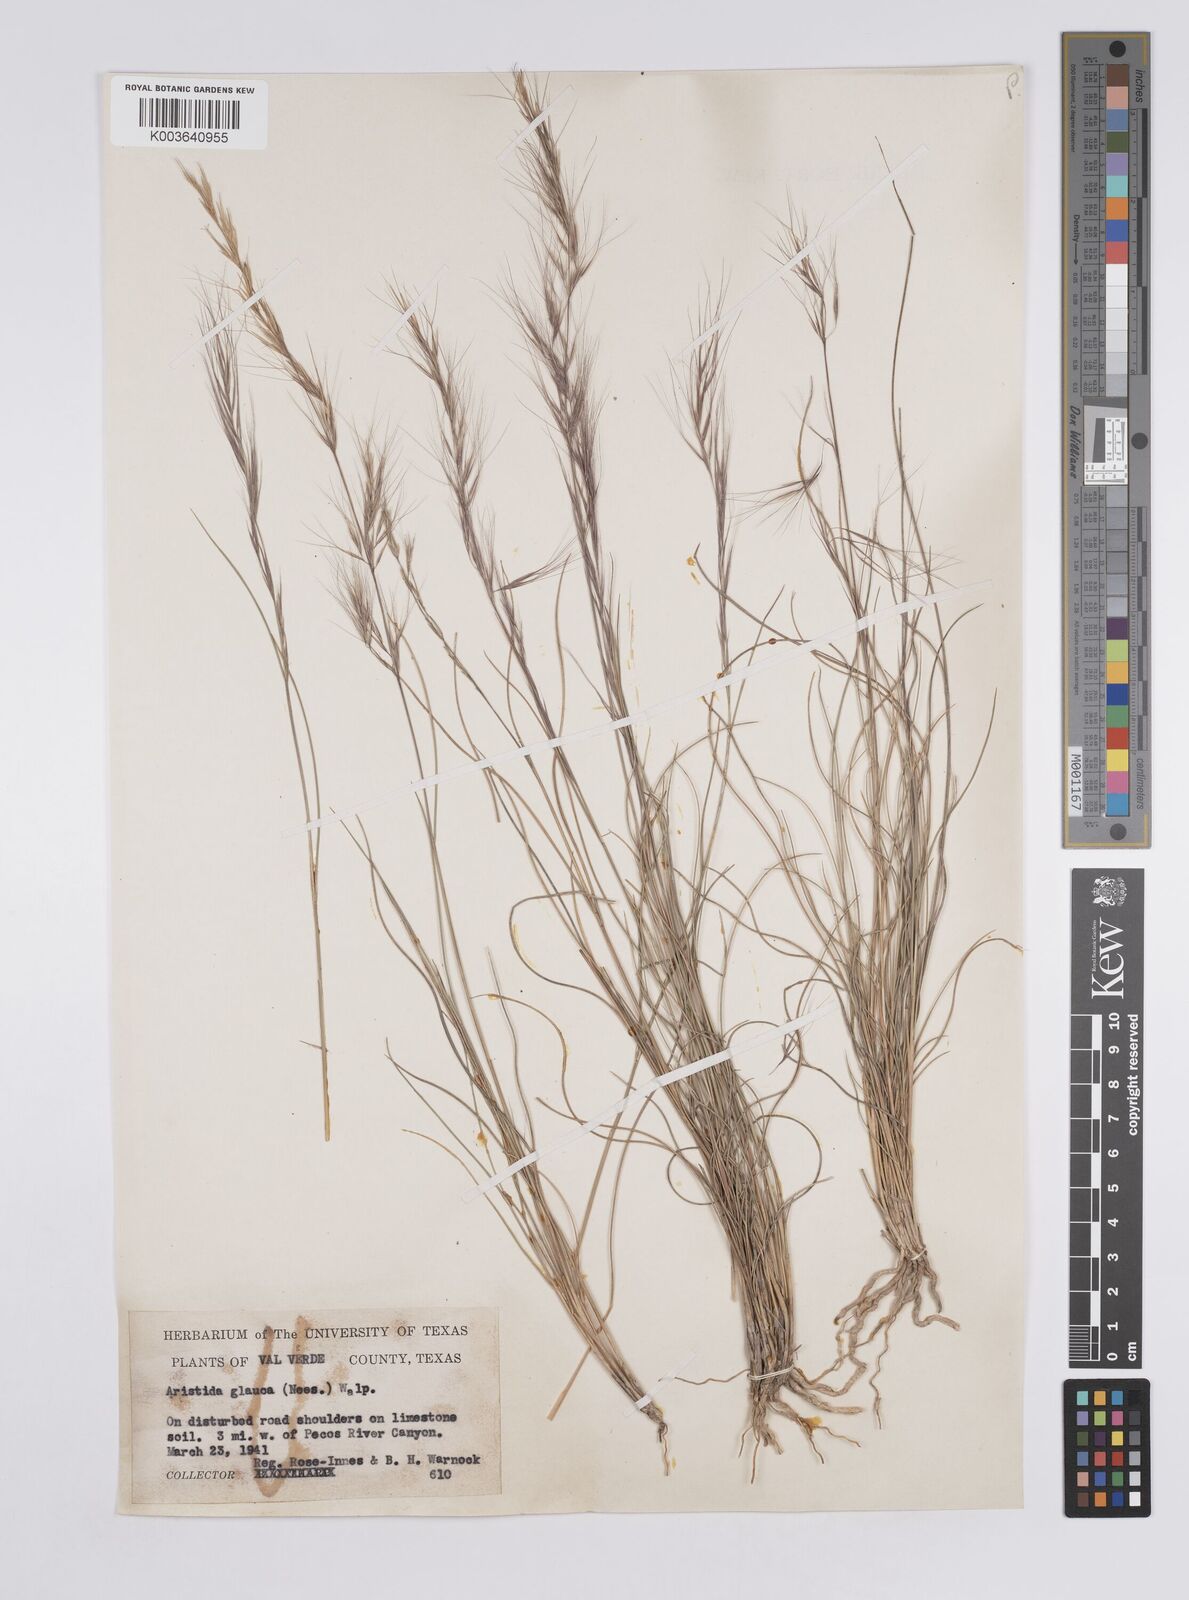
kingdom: Plantae
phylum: Tracheophyta
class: Liliopsida
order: Poales
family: Poaceae
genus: Aristida
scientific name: Aristida purpurea
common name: Purple threeawn
